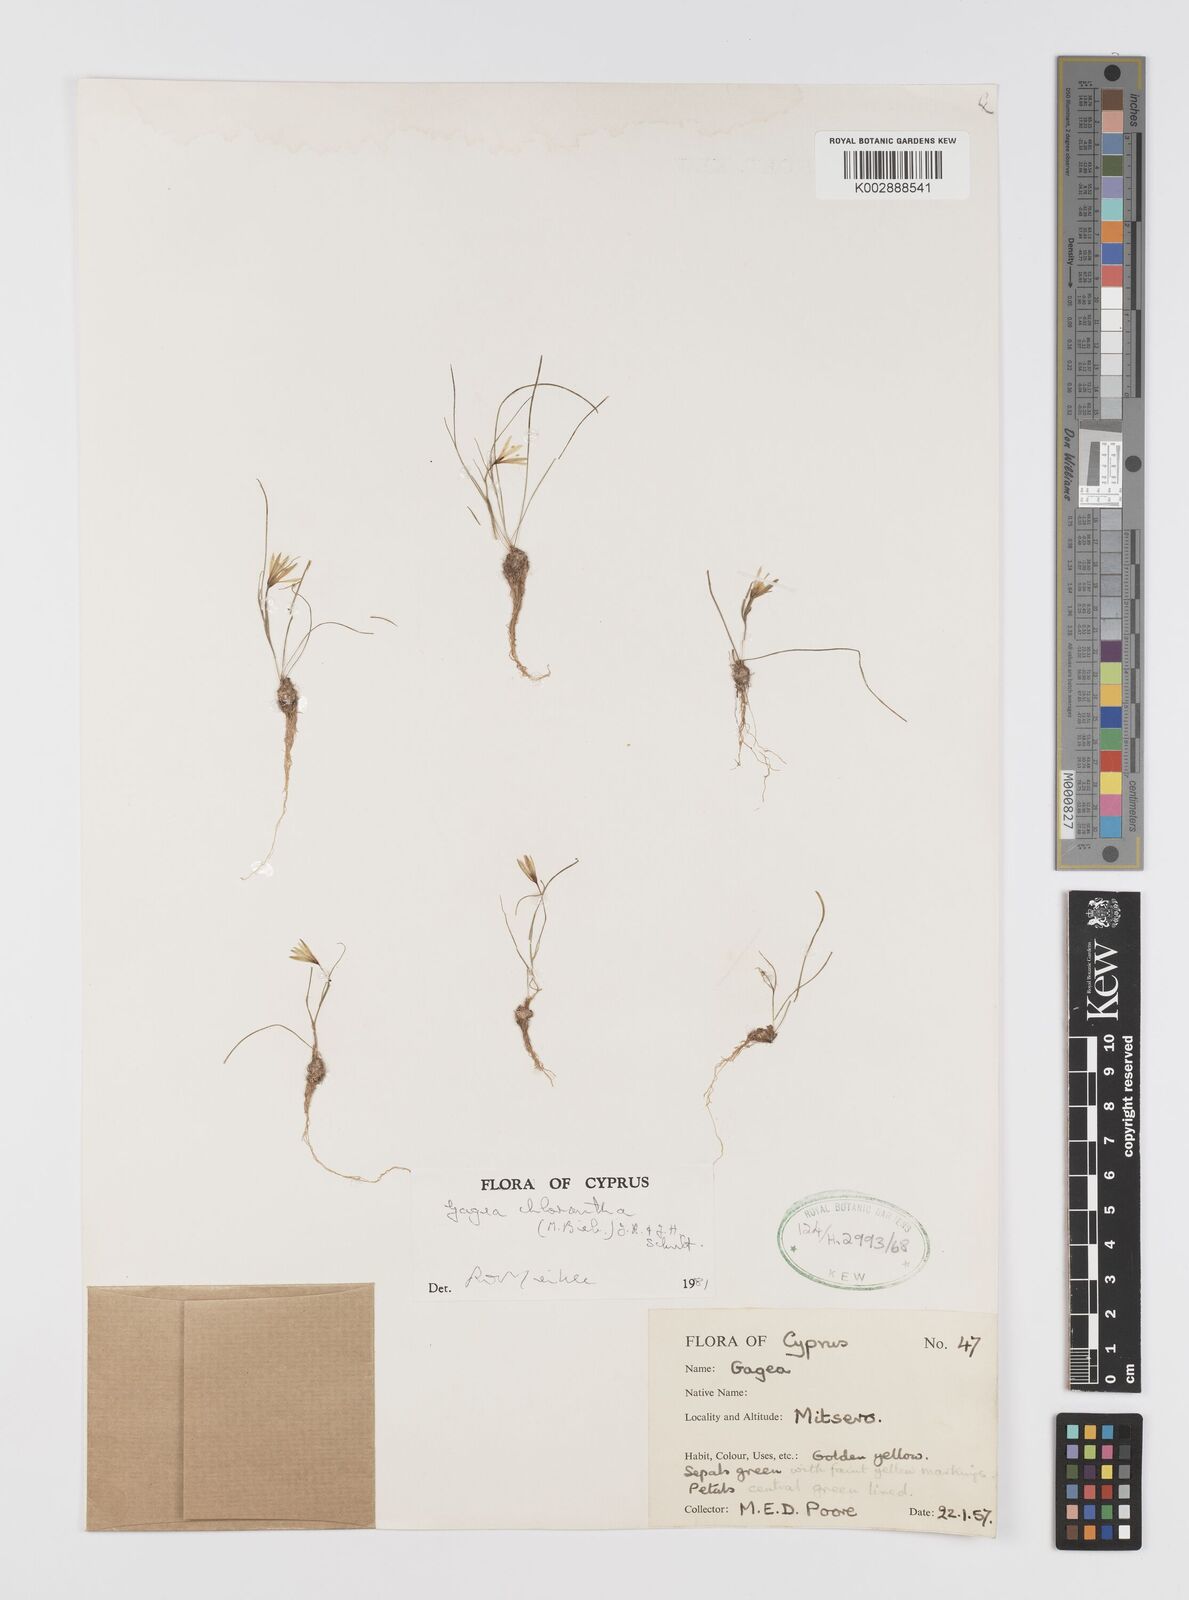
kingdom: Plantae
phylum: Tracheophyta
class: Liliopsida
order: Liliales
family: Liliaceae
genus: Gagea
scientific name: Gagea chlorantha
